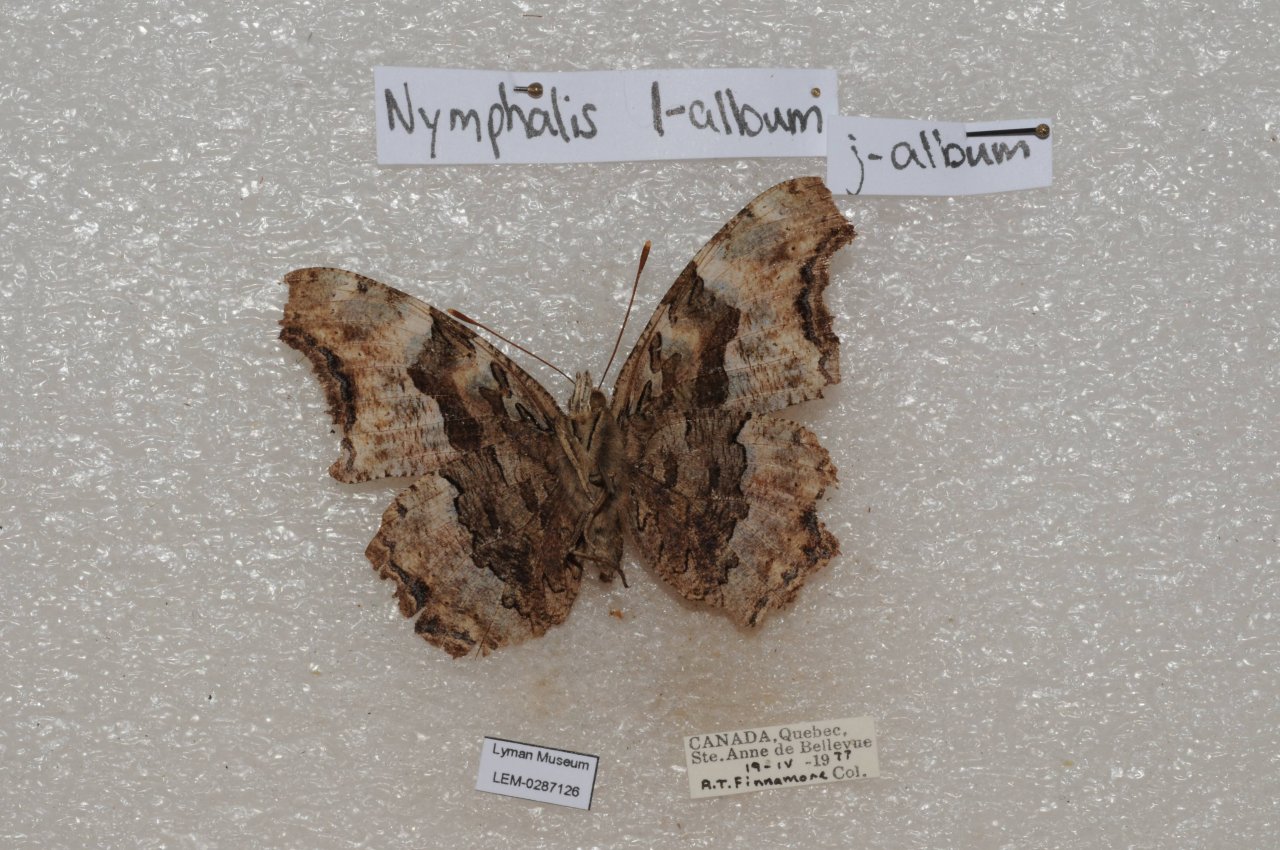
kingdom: Animalia
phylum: Arthropoda
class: Insecta
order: Lepidoptera
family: Nymphalidae
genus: Polygonia
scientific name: Polygonia vaualbum
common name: Compton Tortoiseshell
